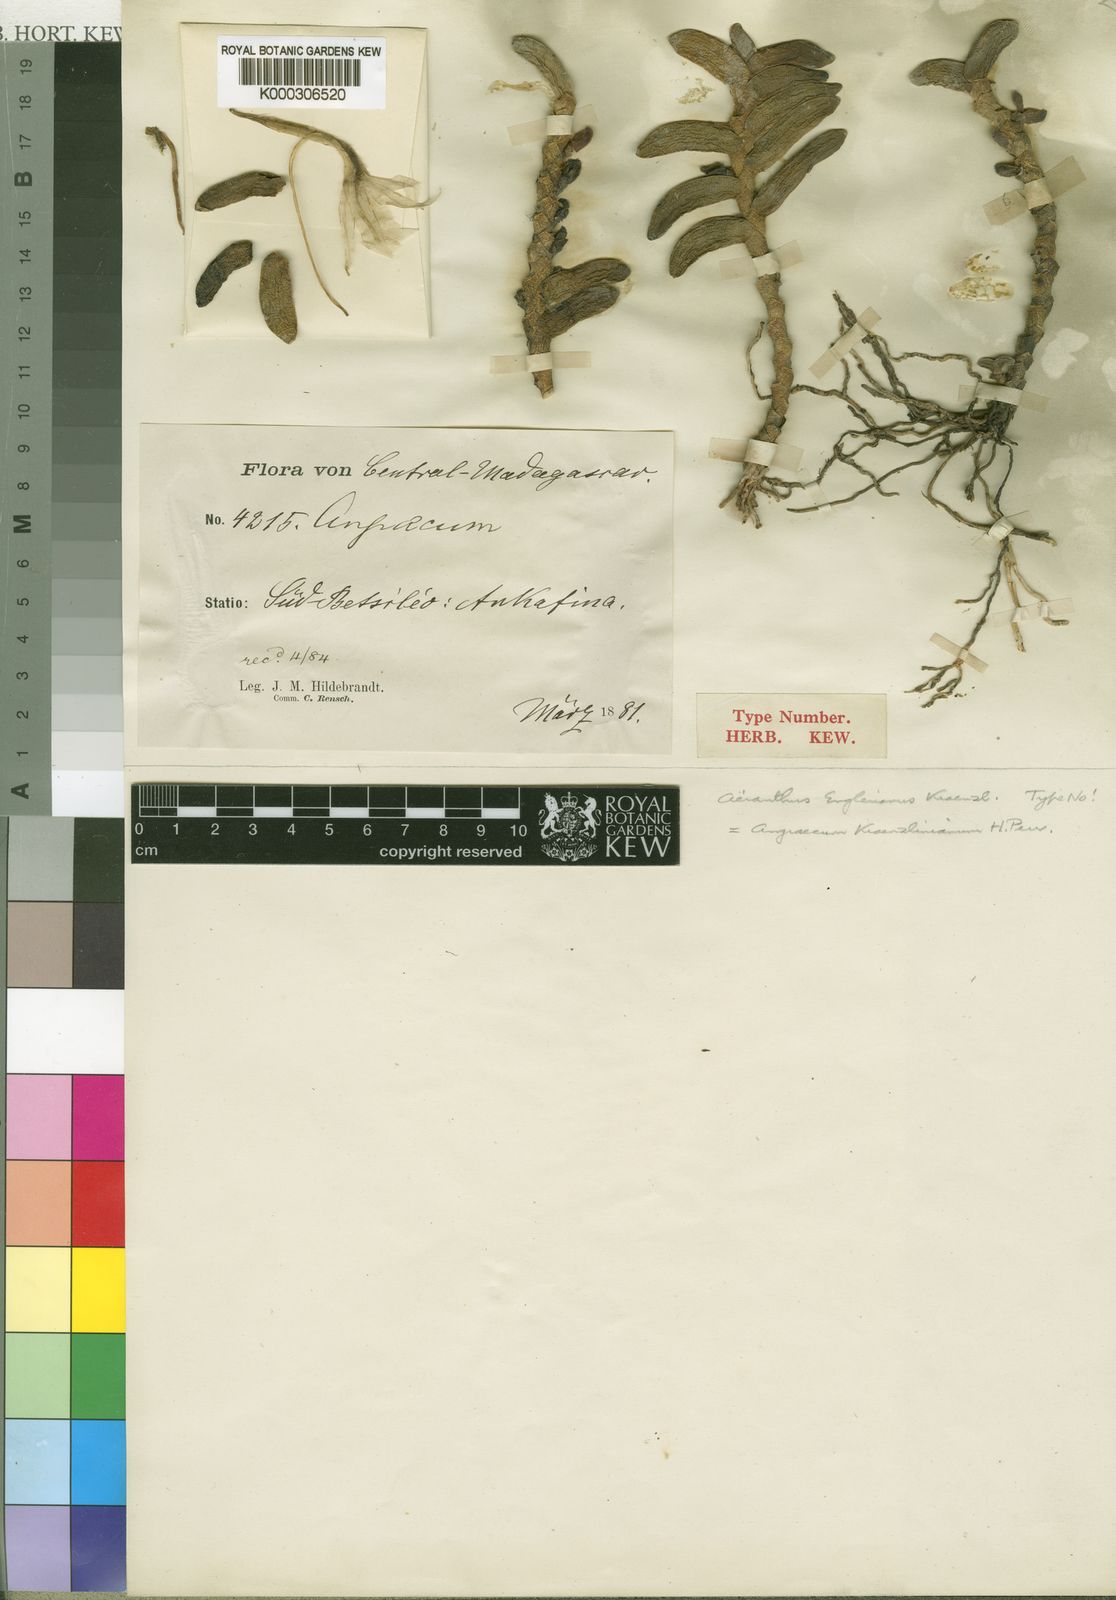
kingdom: Plantae
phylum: Tracheophyta
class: Liliopsida
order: Asparagales
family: Orchidaceae
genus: Angraecum
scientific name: Angraecum kranzlinianum
